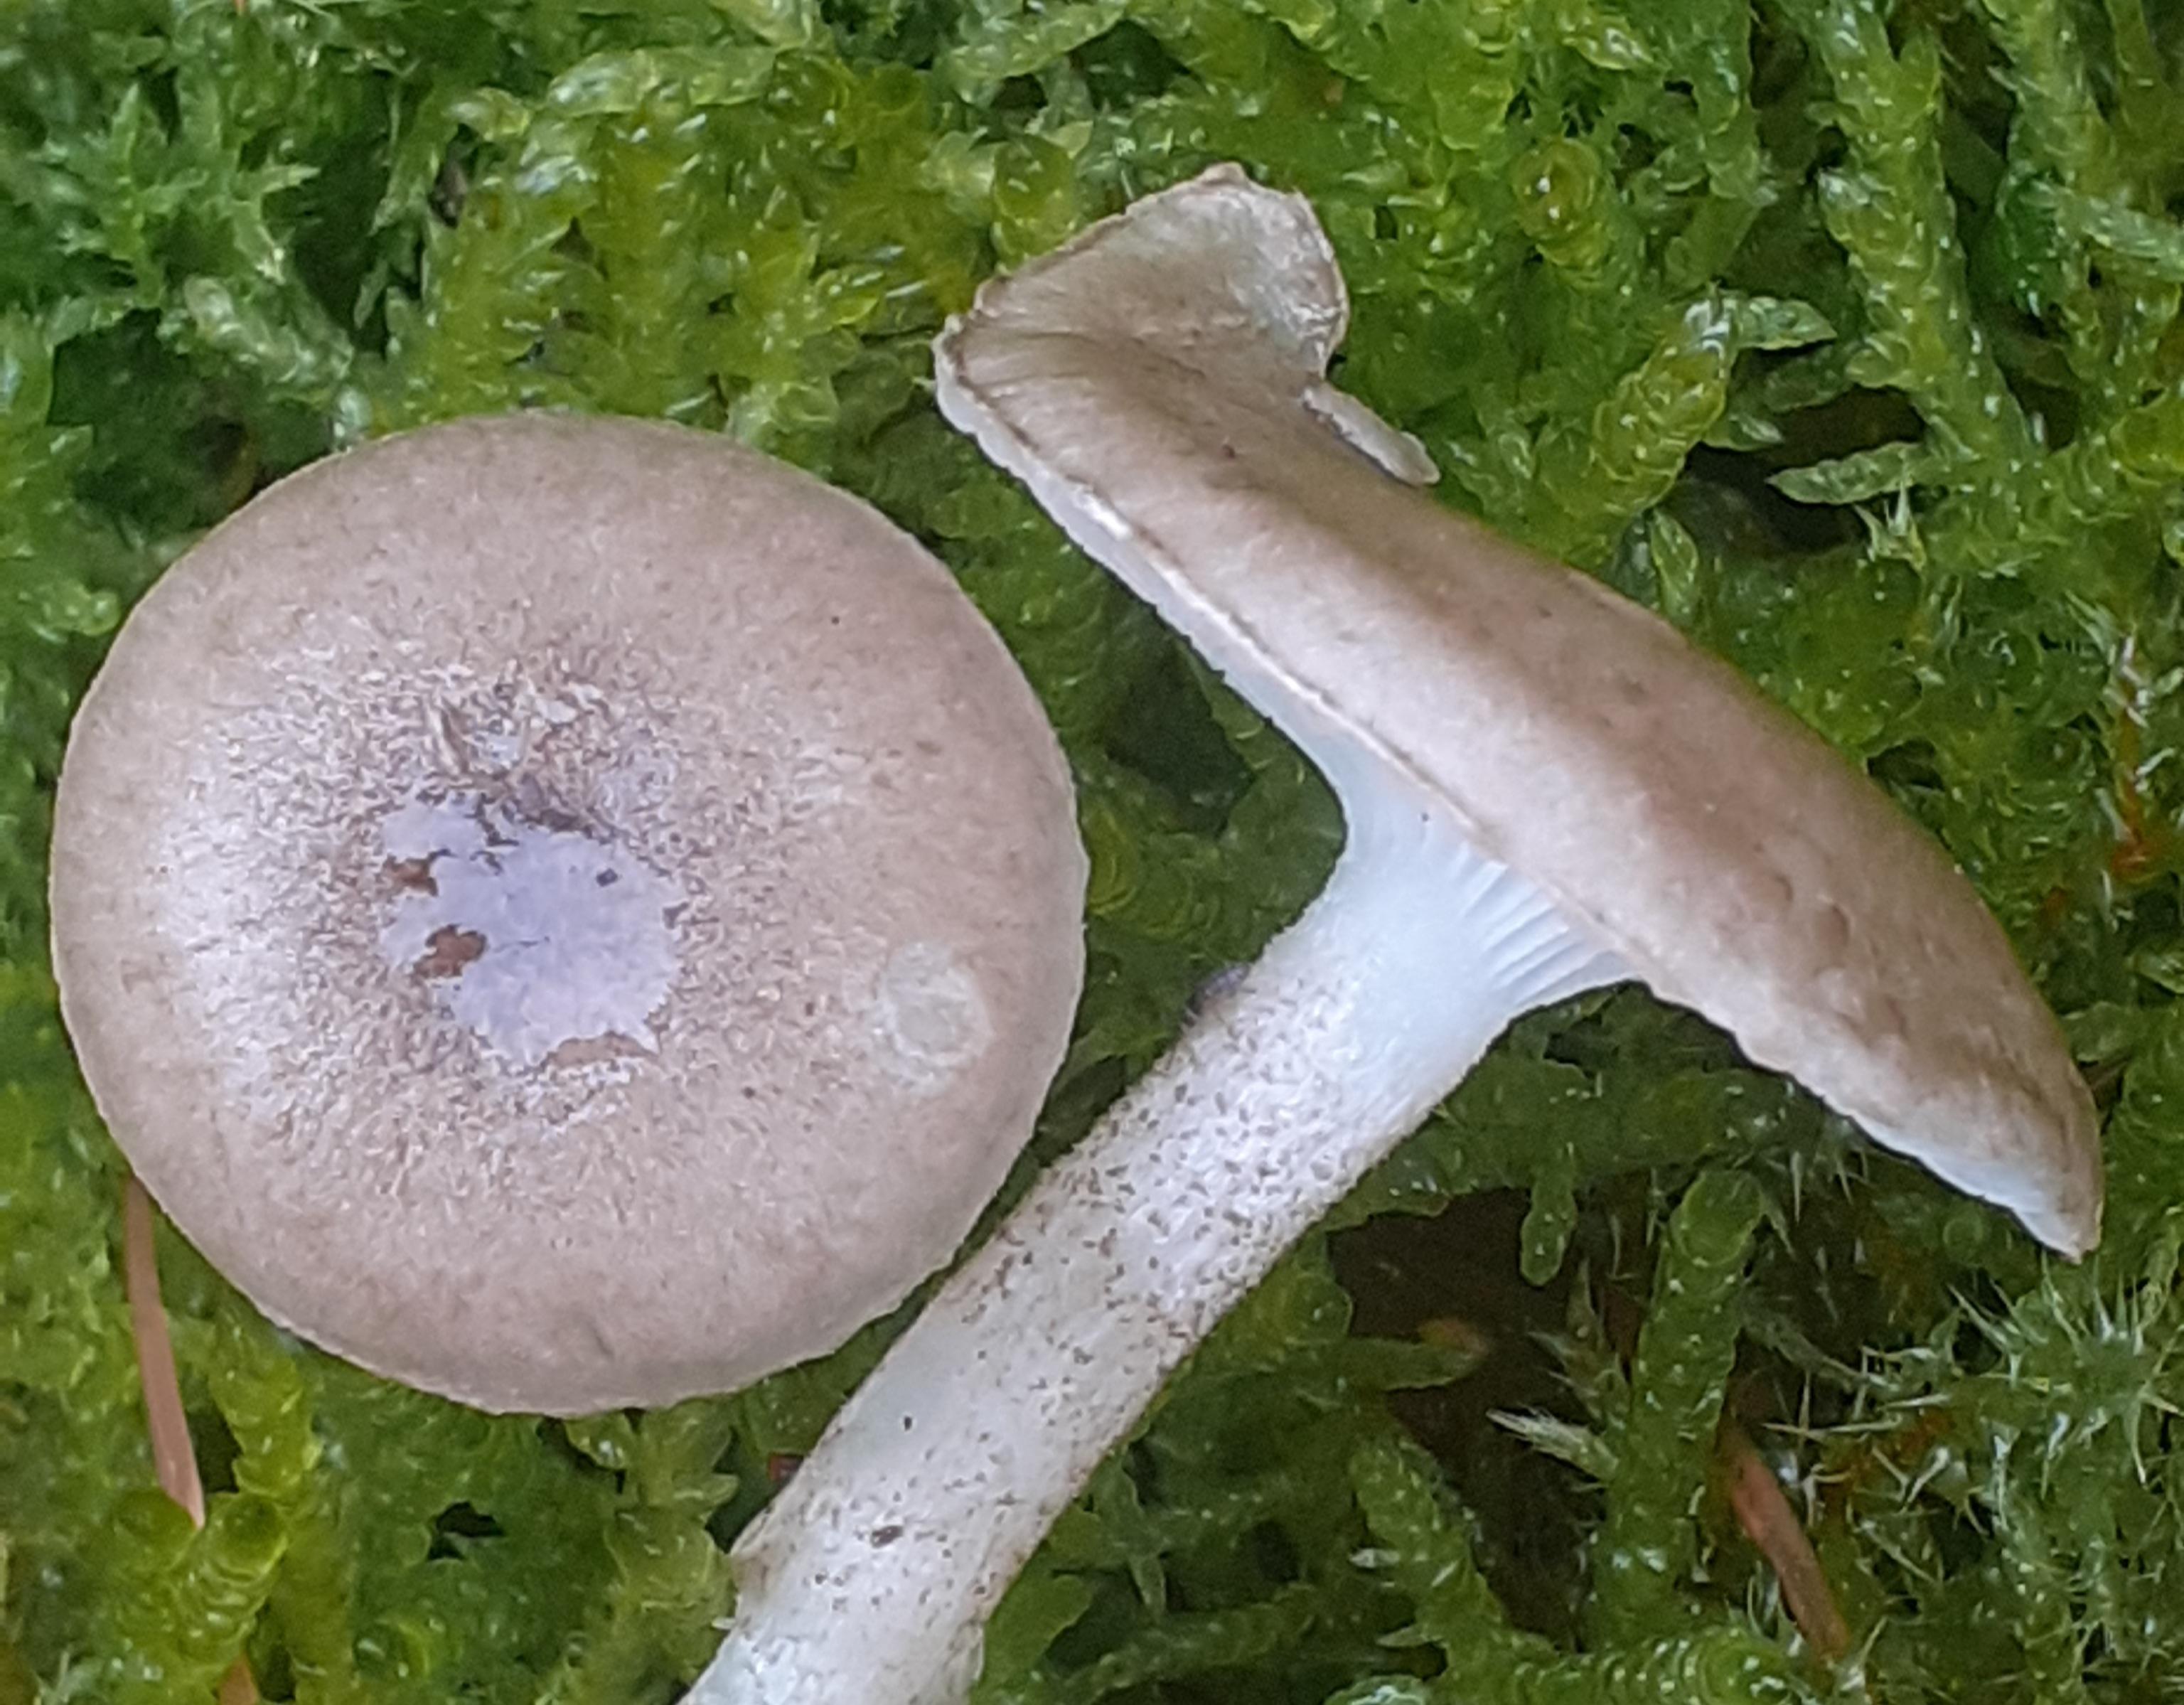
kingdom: Fungi
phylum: Basidiomycota
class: Agaricomycetes
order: Agaricales
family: Hygrophoraceae
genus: Hygrophorus
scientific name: Hygrophorus pustulatus
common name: mørkprikket sneglehat
